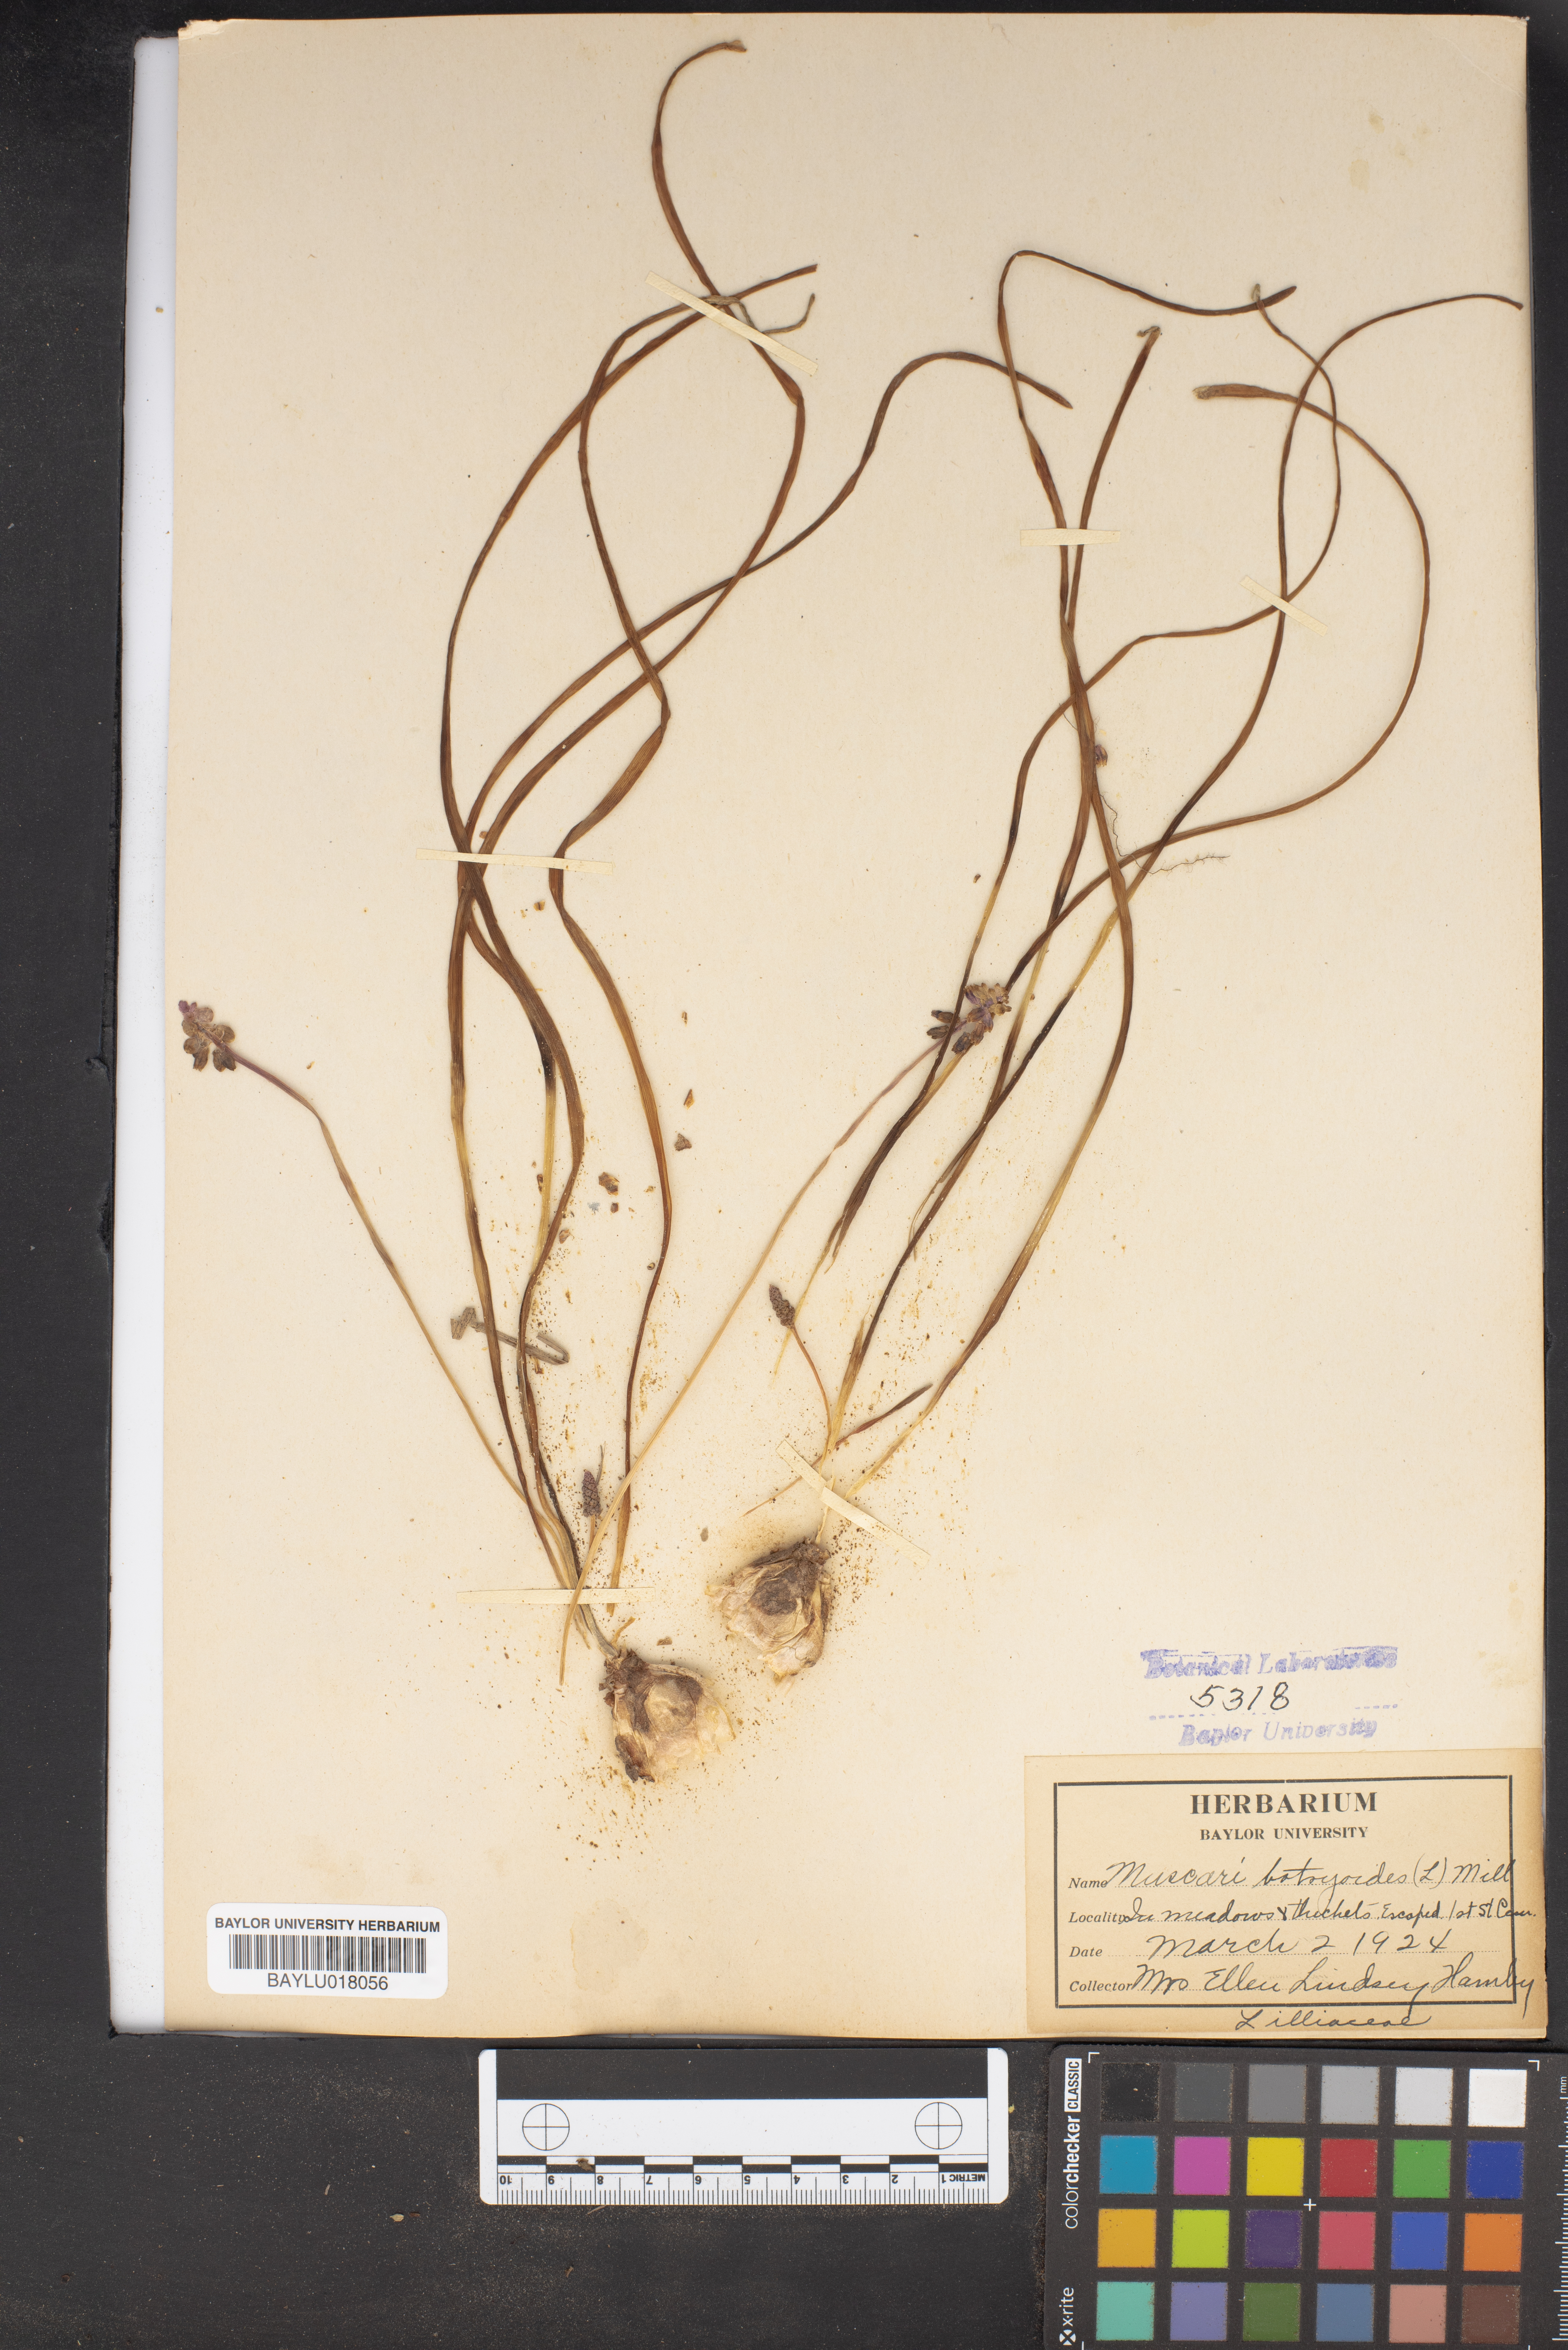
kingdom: Plantae
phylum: Tracheophyta
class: Liliopsida
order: Asparagales
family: Asparagaceae
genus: Muscari
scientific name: Muscari botryoides
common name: Compact grape-hyacinth
